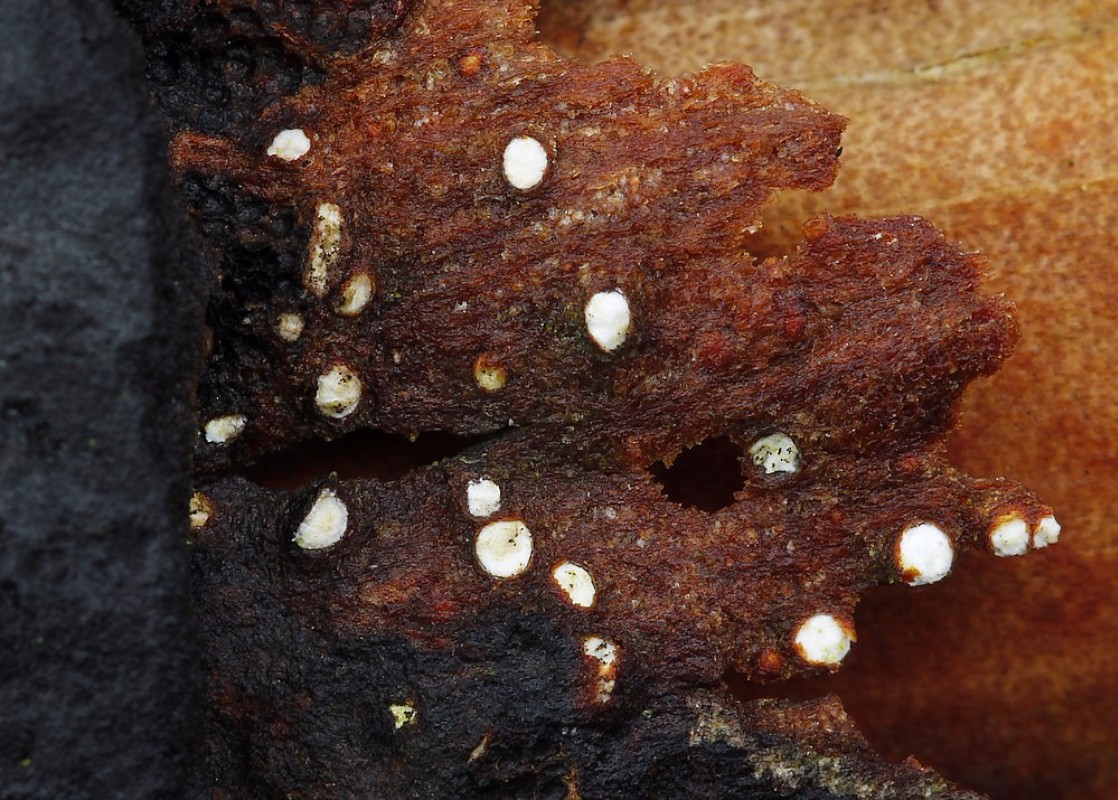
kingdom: Fungi
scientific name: Fungi
